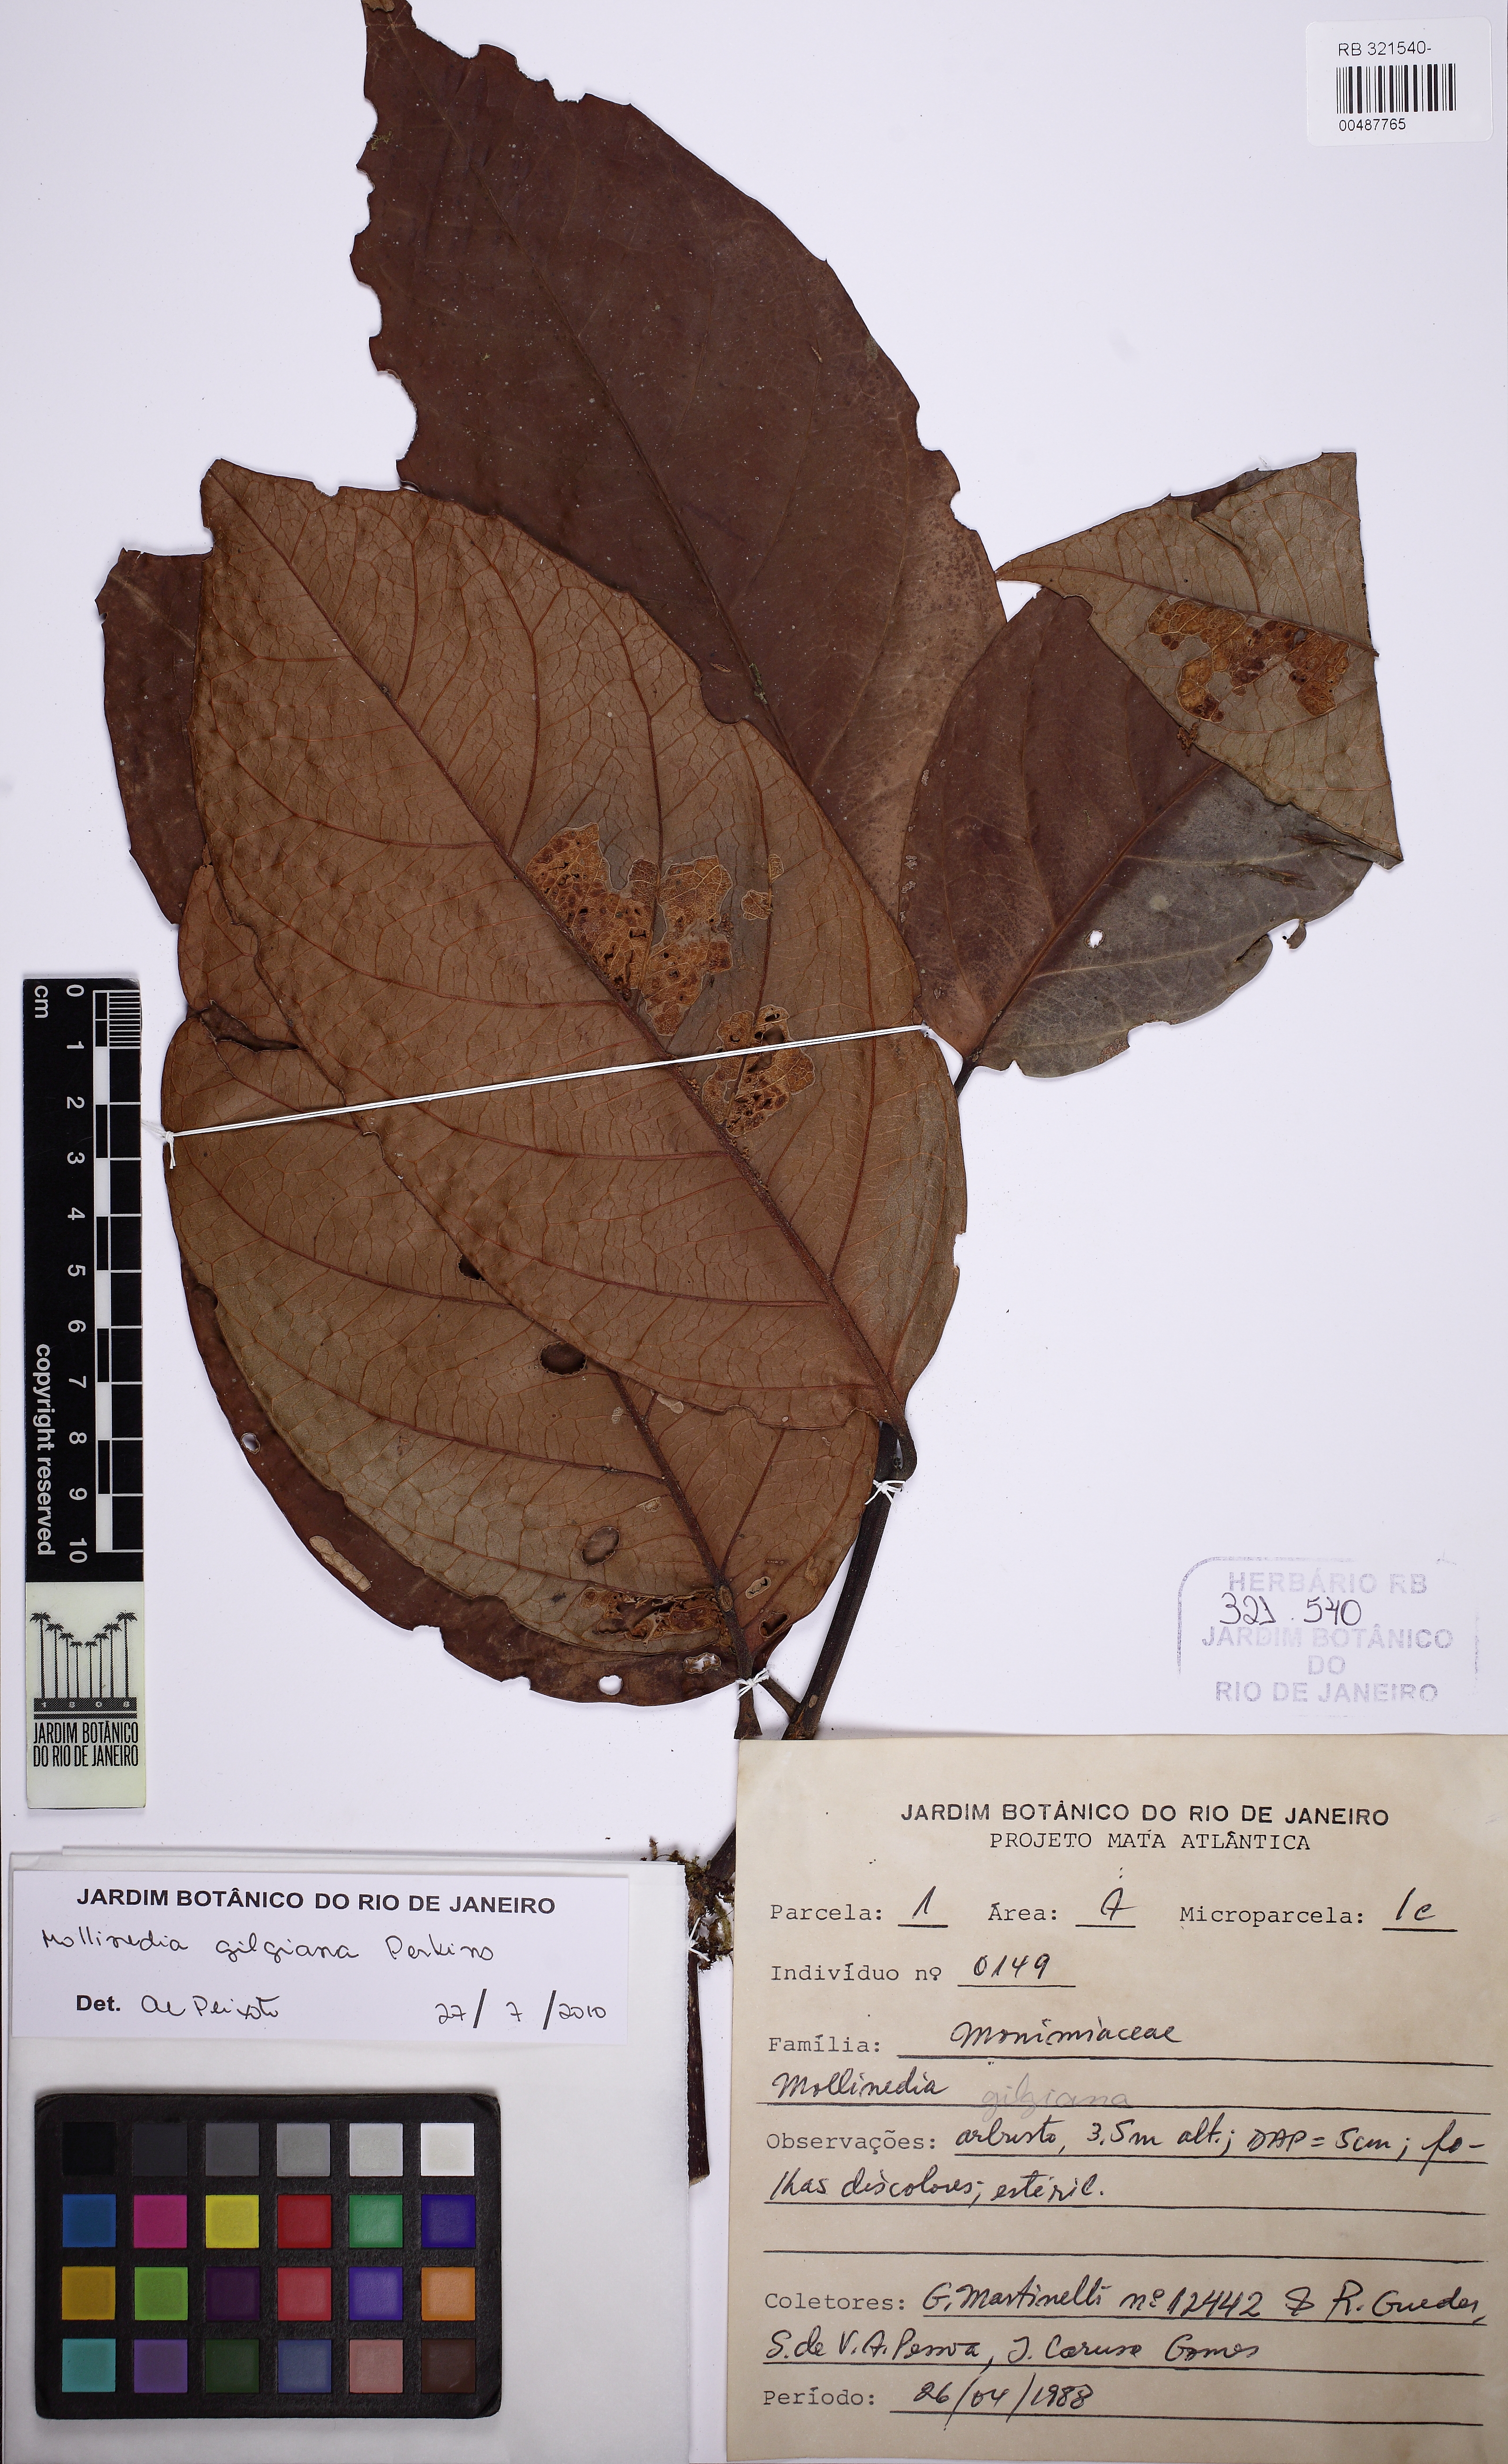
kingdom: Plantae
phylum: Tracheophyta
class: Magnoliopsida
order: Laurales
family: Monimiaceae
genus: Mollinedia
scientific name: Mollinedia gilgiana
